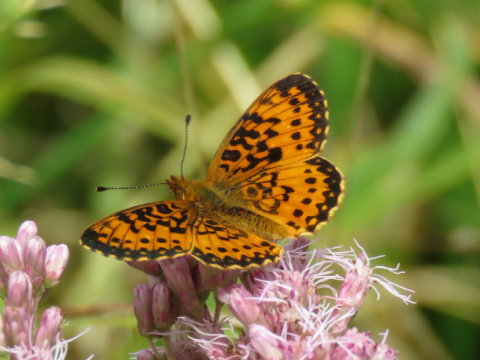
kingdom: Animalia
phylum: Arthropoda
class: Insecta
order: Lepidoptera
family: Nymphalidae
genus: Boloria
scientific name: Boloria selene
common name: Silver-bordered Fritillary
